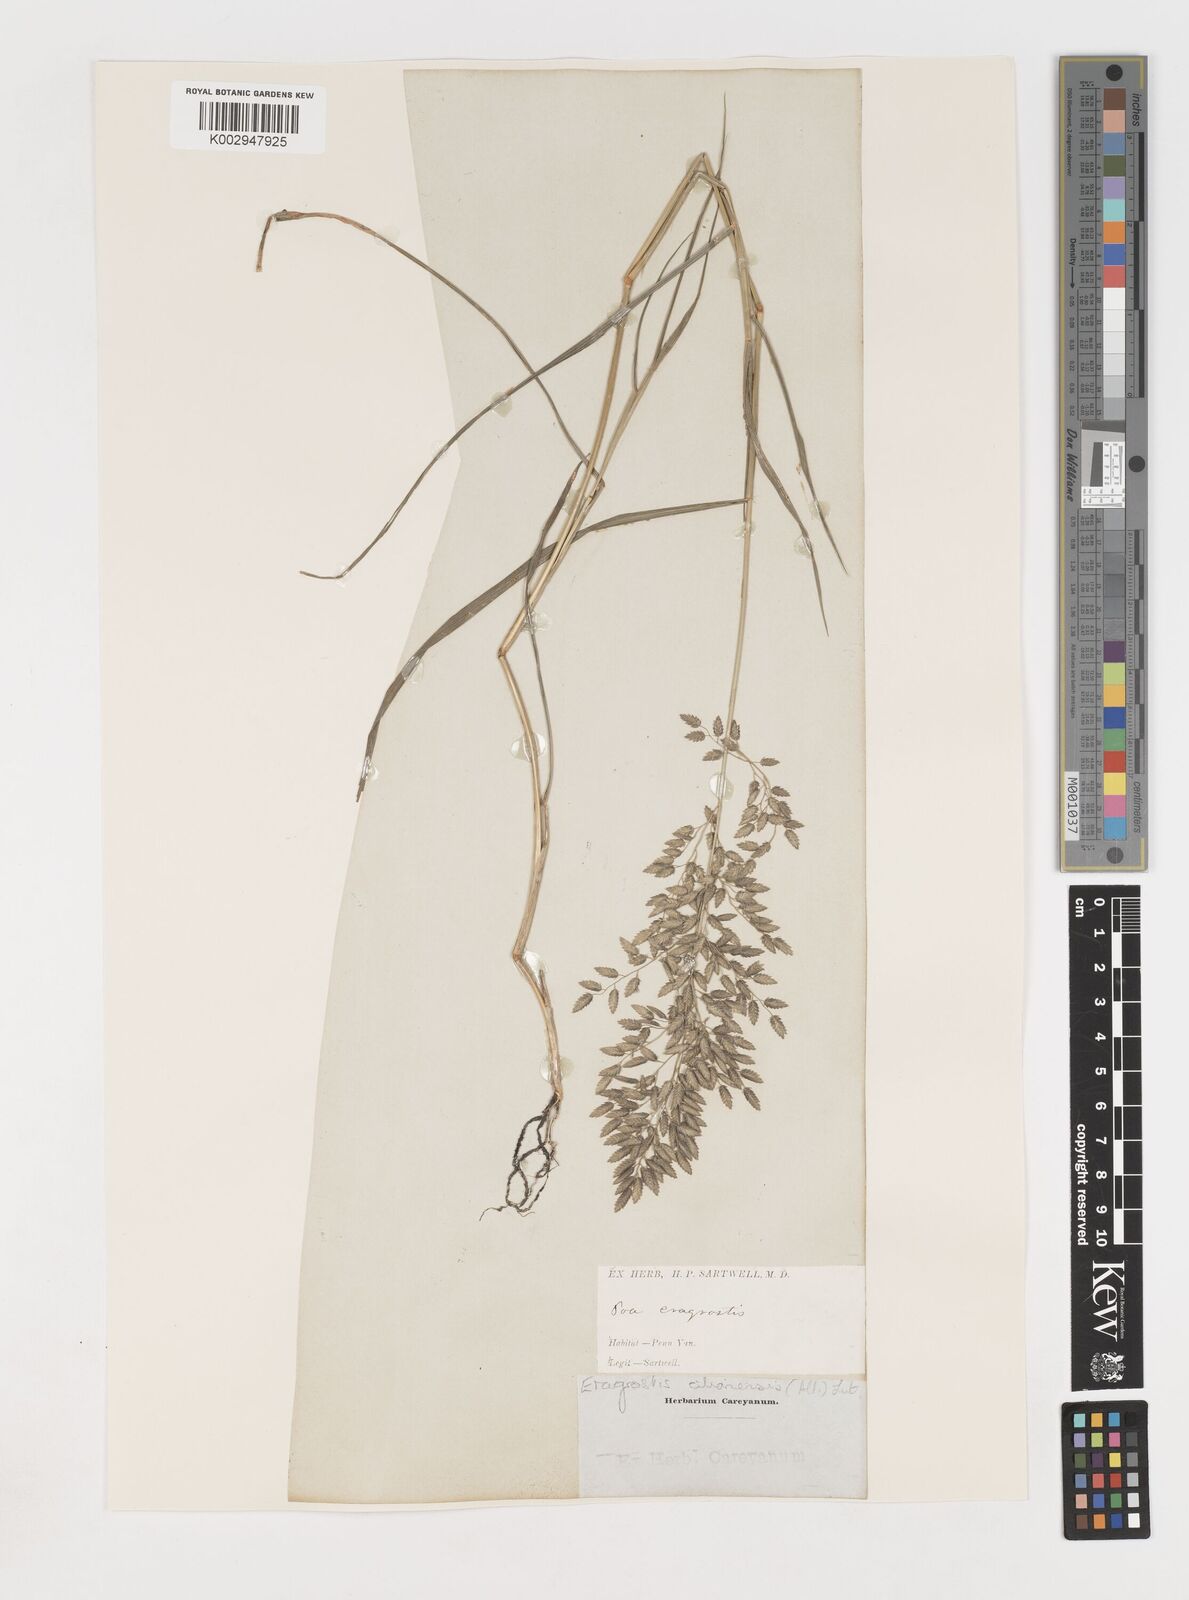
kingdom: Plantae
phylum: Tracheophyta
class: Liliopsida
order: Poales
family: Poaceae
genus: Eragrostis
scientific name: Eragrostis
